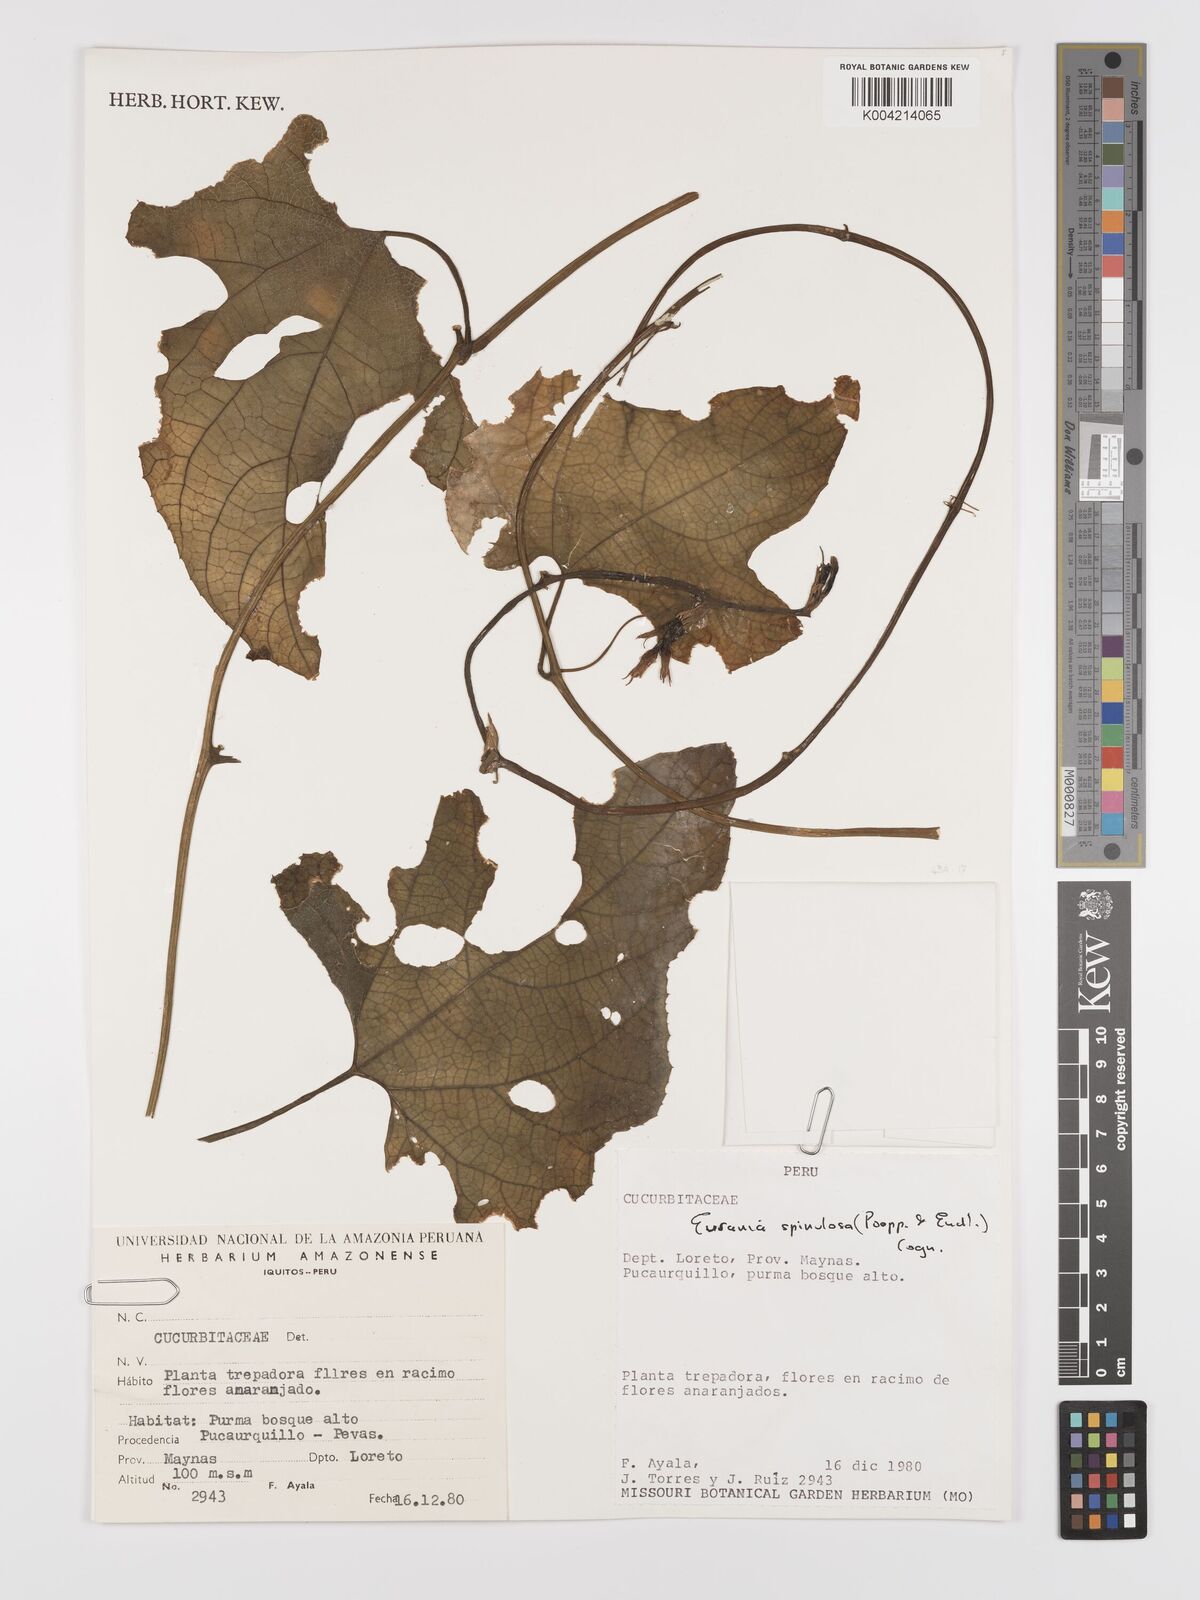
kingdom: Plantae
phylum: Tracheophyta
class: Magnoliopsida
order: Cucurbitales
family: Cucurbitaceae
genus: Gurania
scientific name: Gurania lobata
